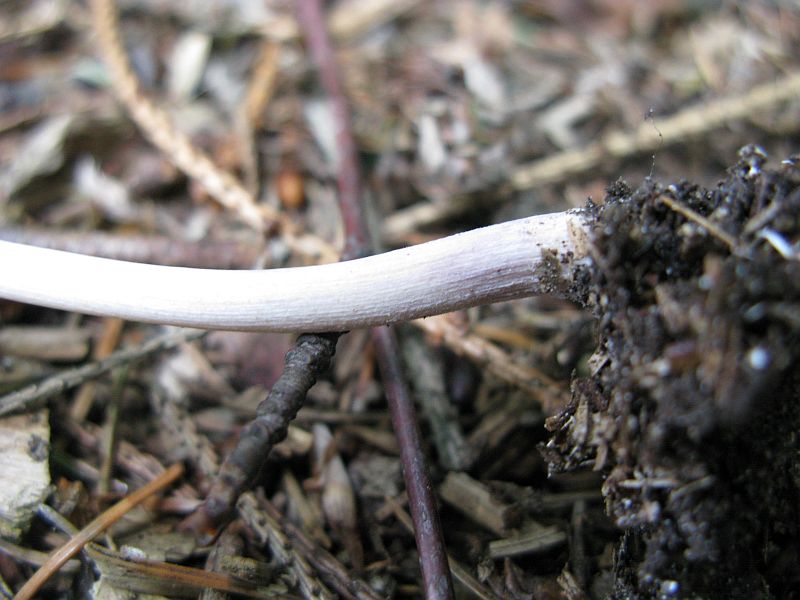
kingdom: Fungi
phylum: Basidiomycota
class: Agaricomycetes
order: Agaricales
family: Psathyrellaceae
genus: Coprinellus
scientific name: Coprinellus micaceus
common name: glimmer-blækhat
